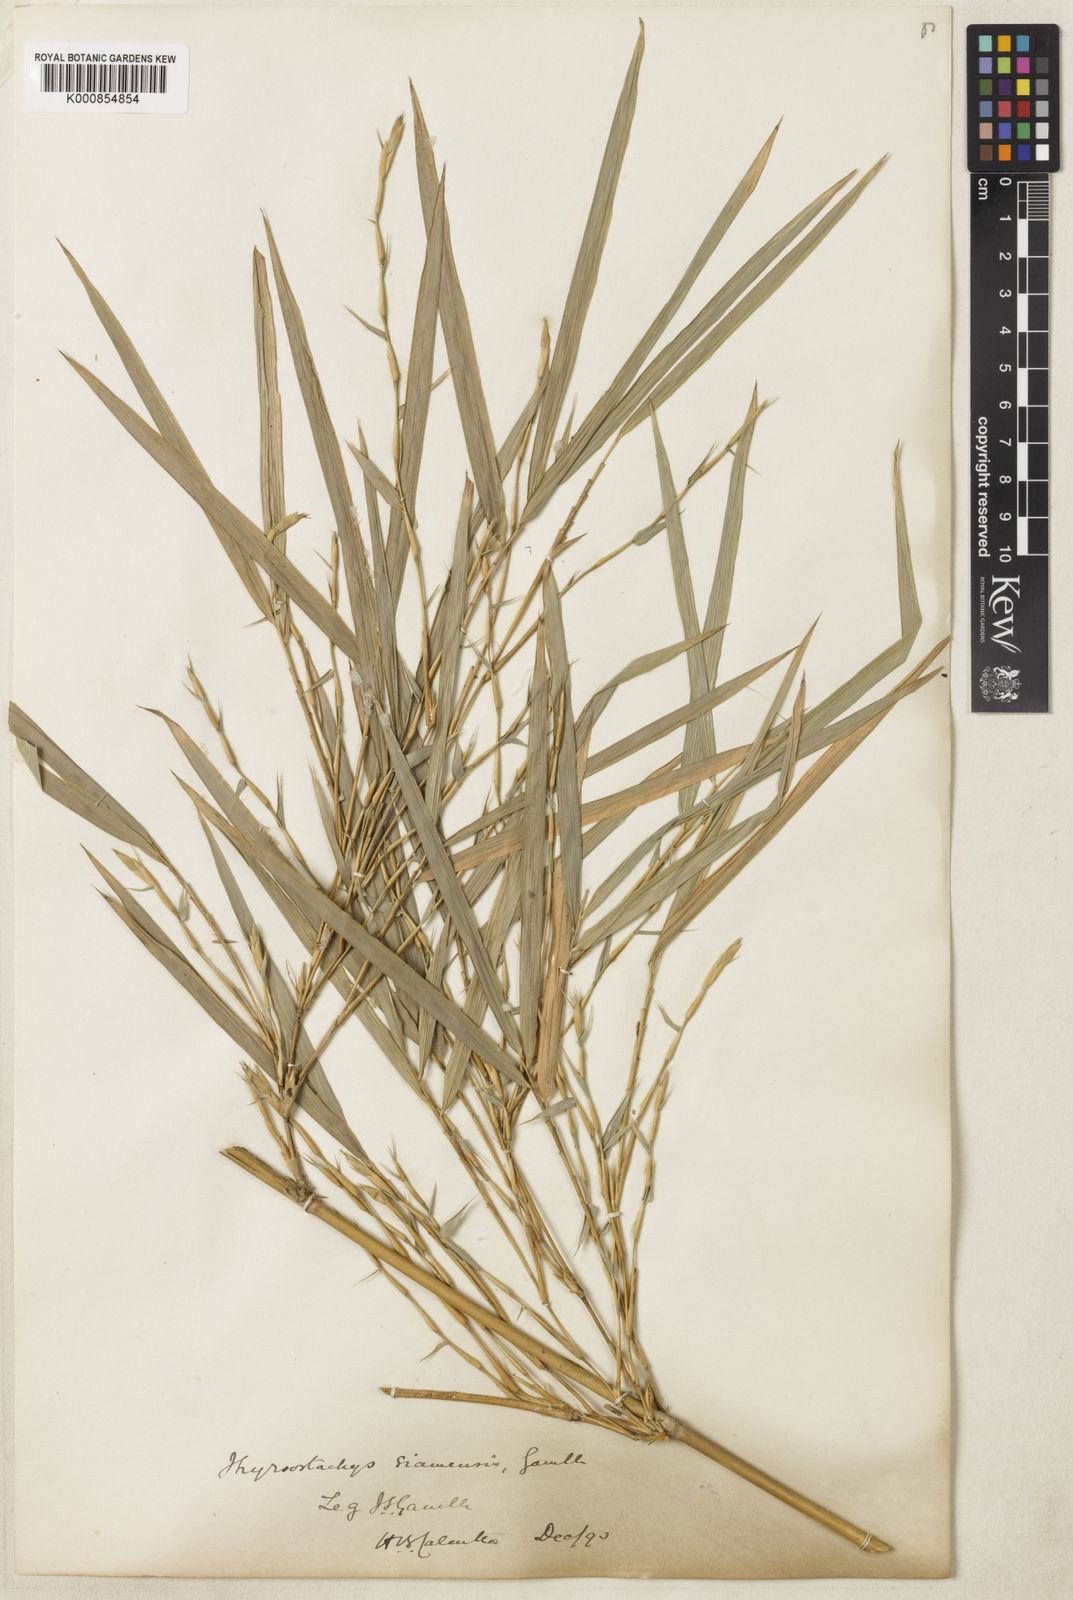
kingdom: Plantae
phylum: Tracheophyta
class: Liliopsida
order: Poales
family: Poaceae
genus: Thyrsostachys
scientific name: Thyrsostachys siamensis
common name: Thailand bamboo
